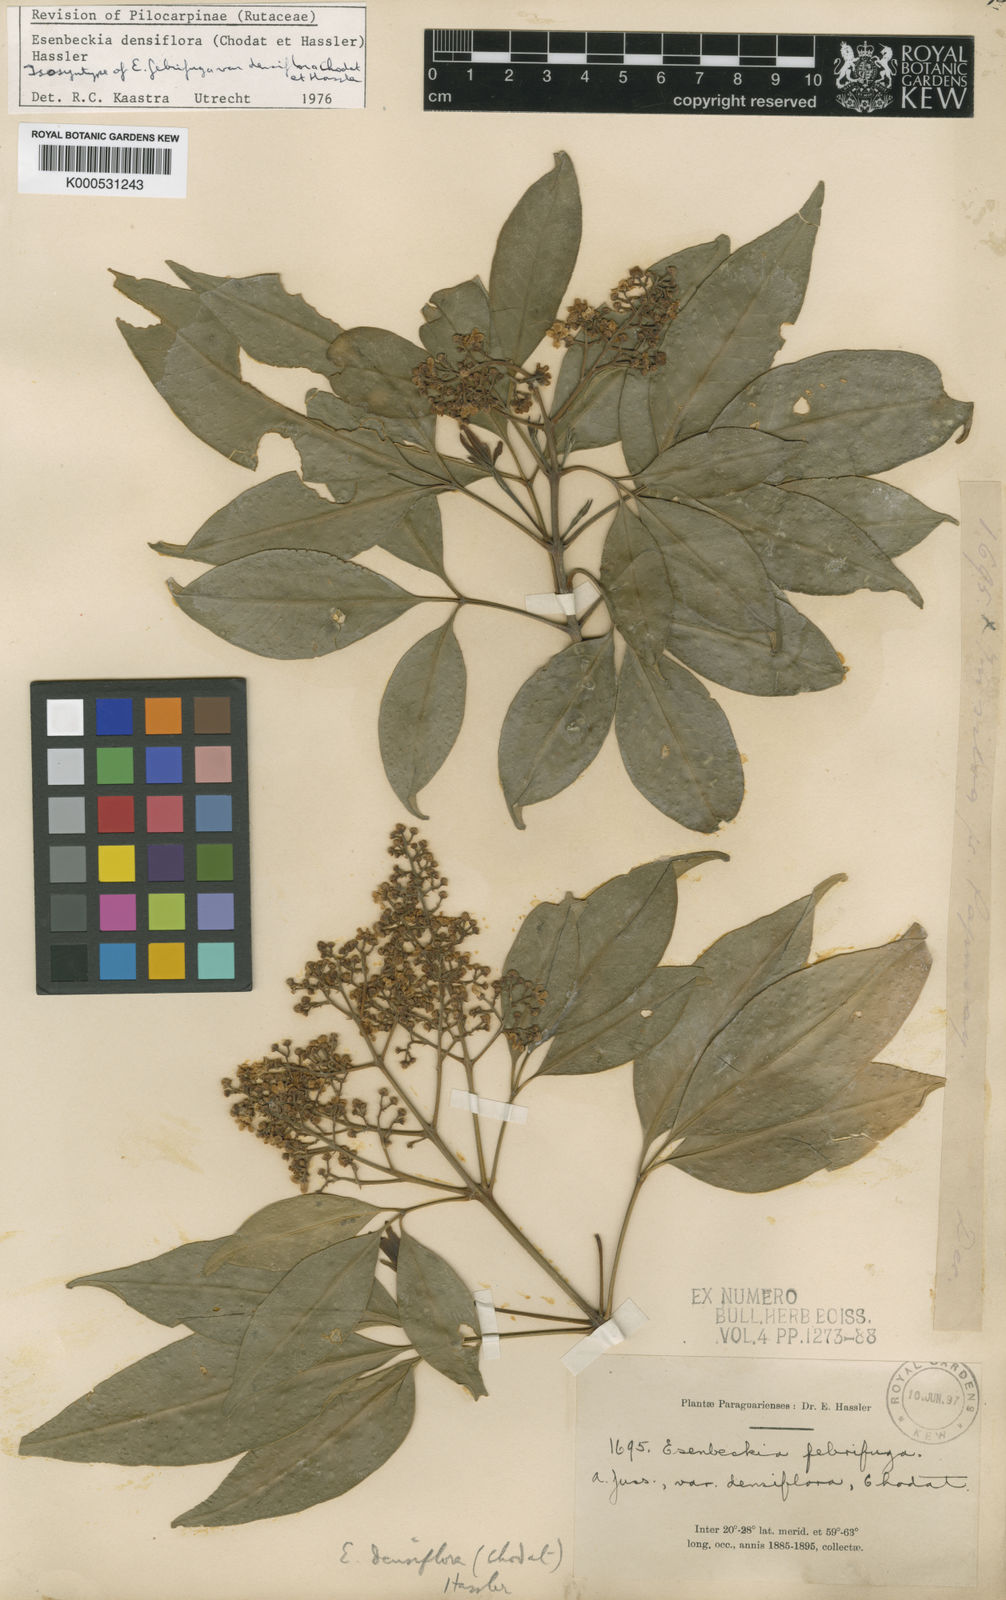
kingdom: Plantae
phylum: Tracheophyta
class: Magnoliopsida
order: Sapindales
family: Rutaceae
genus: Esenbeckia
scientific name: Esenbeckia densiflora
